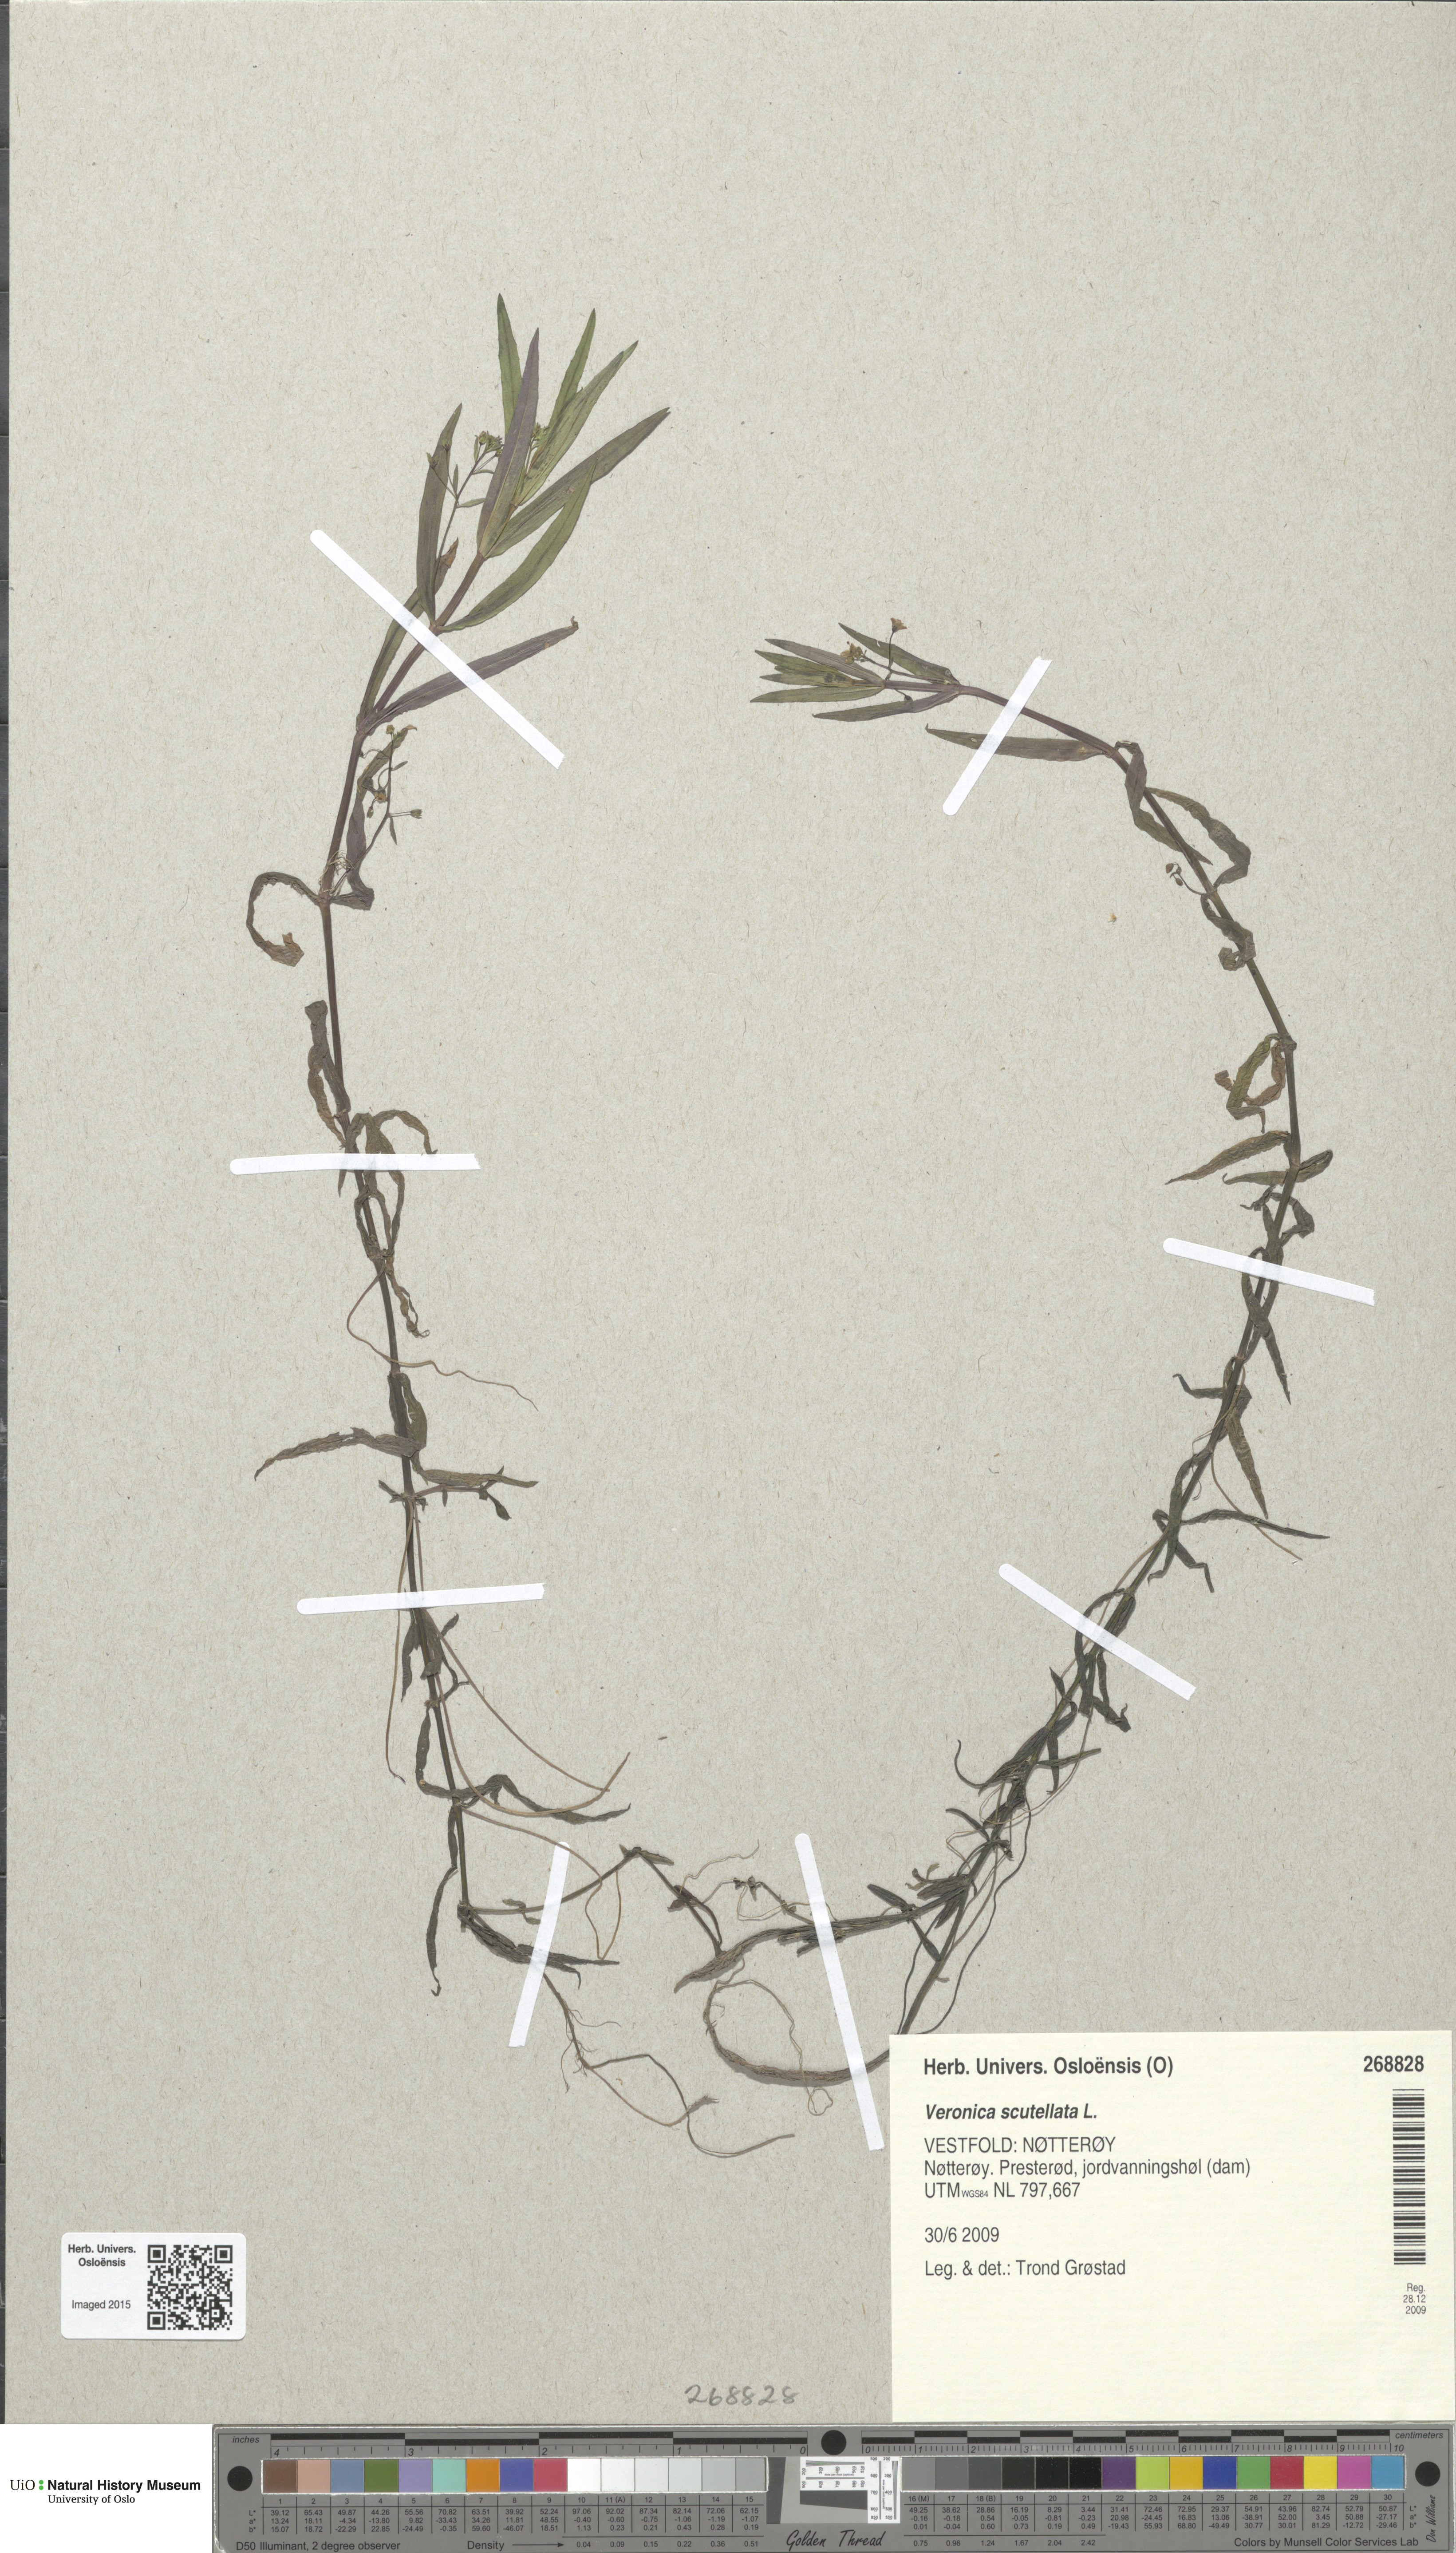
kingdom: Plantae
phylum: Tracheophyta
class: Magnoliopsida
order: Lamiales
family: Plantaginaceae
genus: Veronica
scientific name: Veronica scutellata
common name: Marsh speedwell
